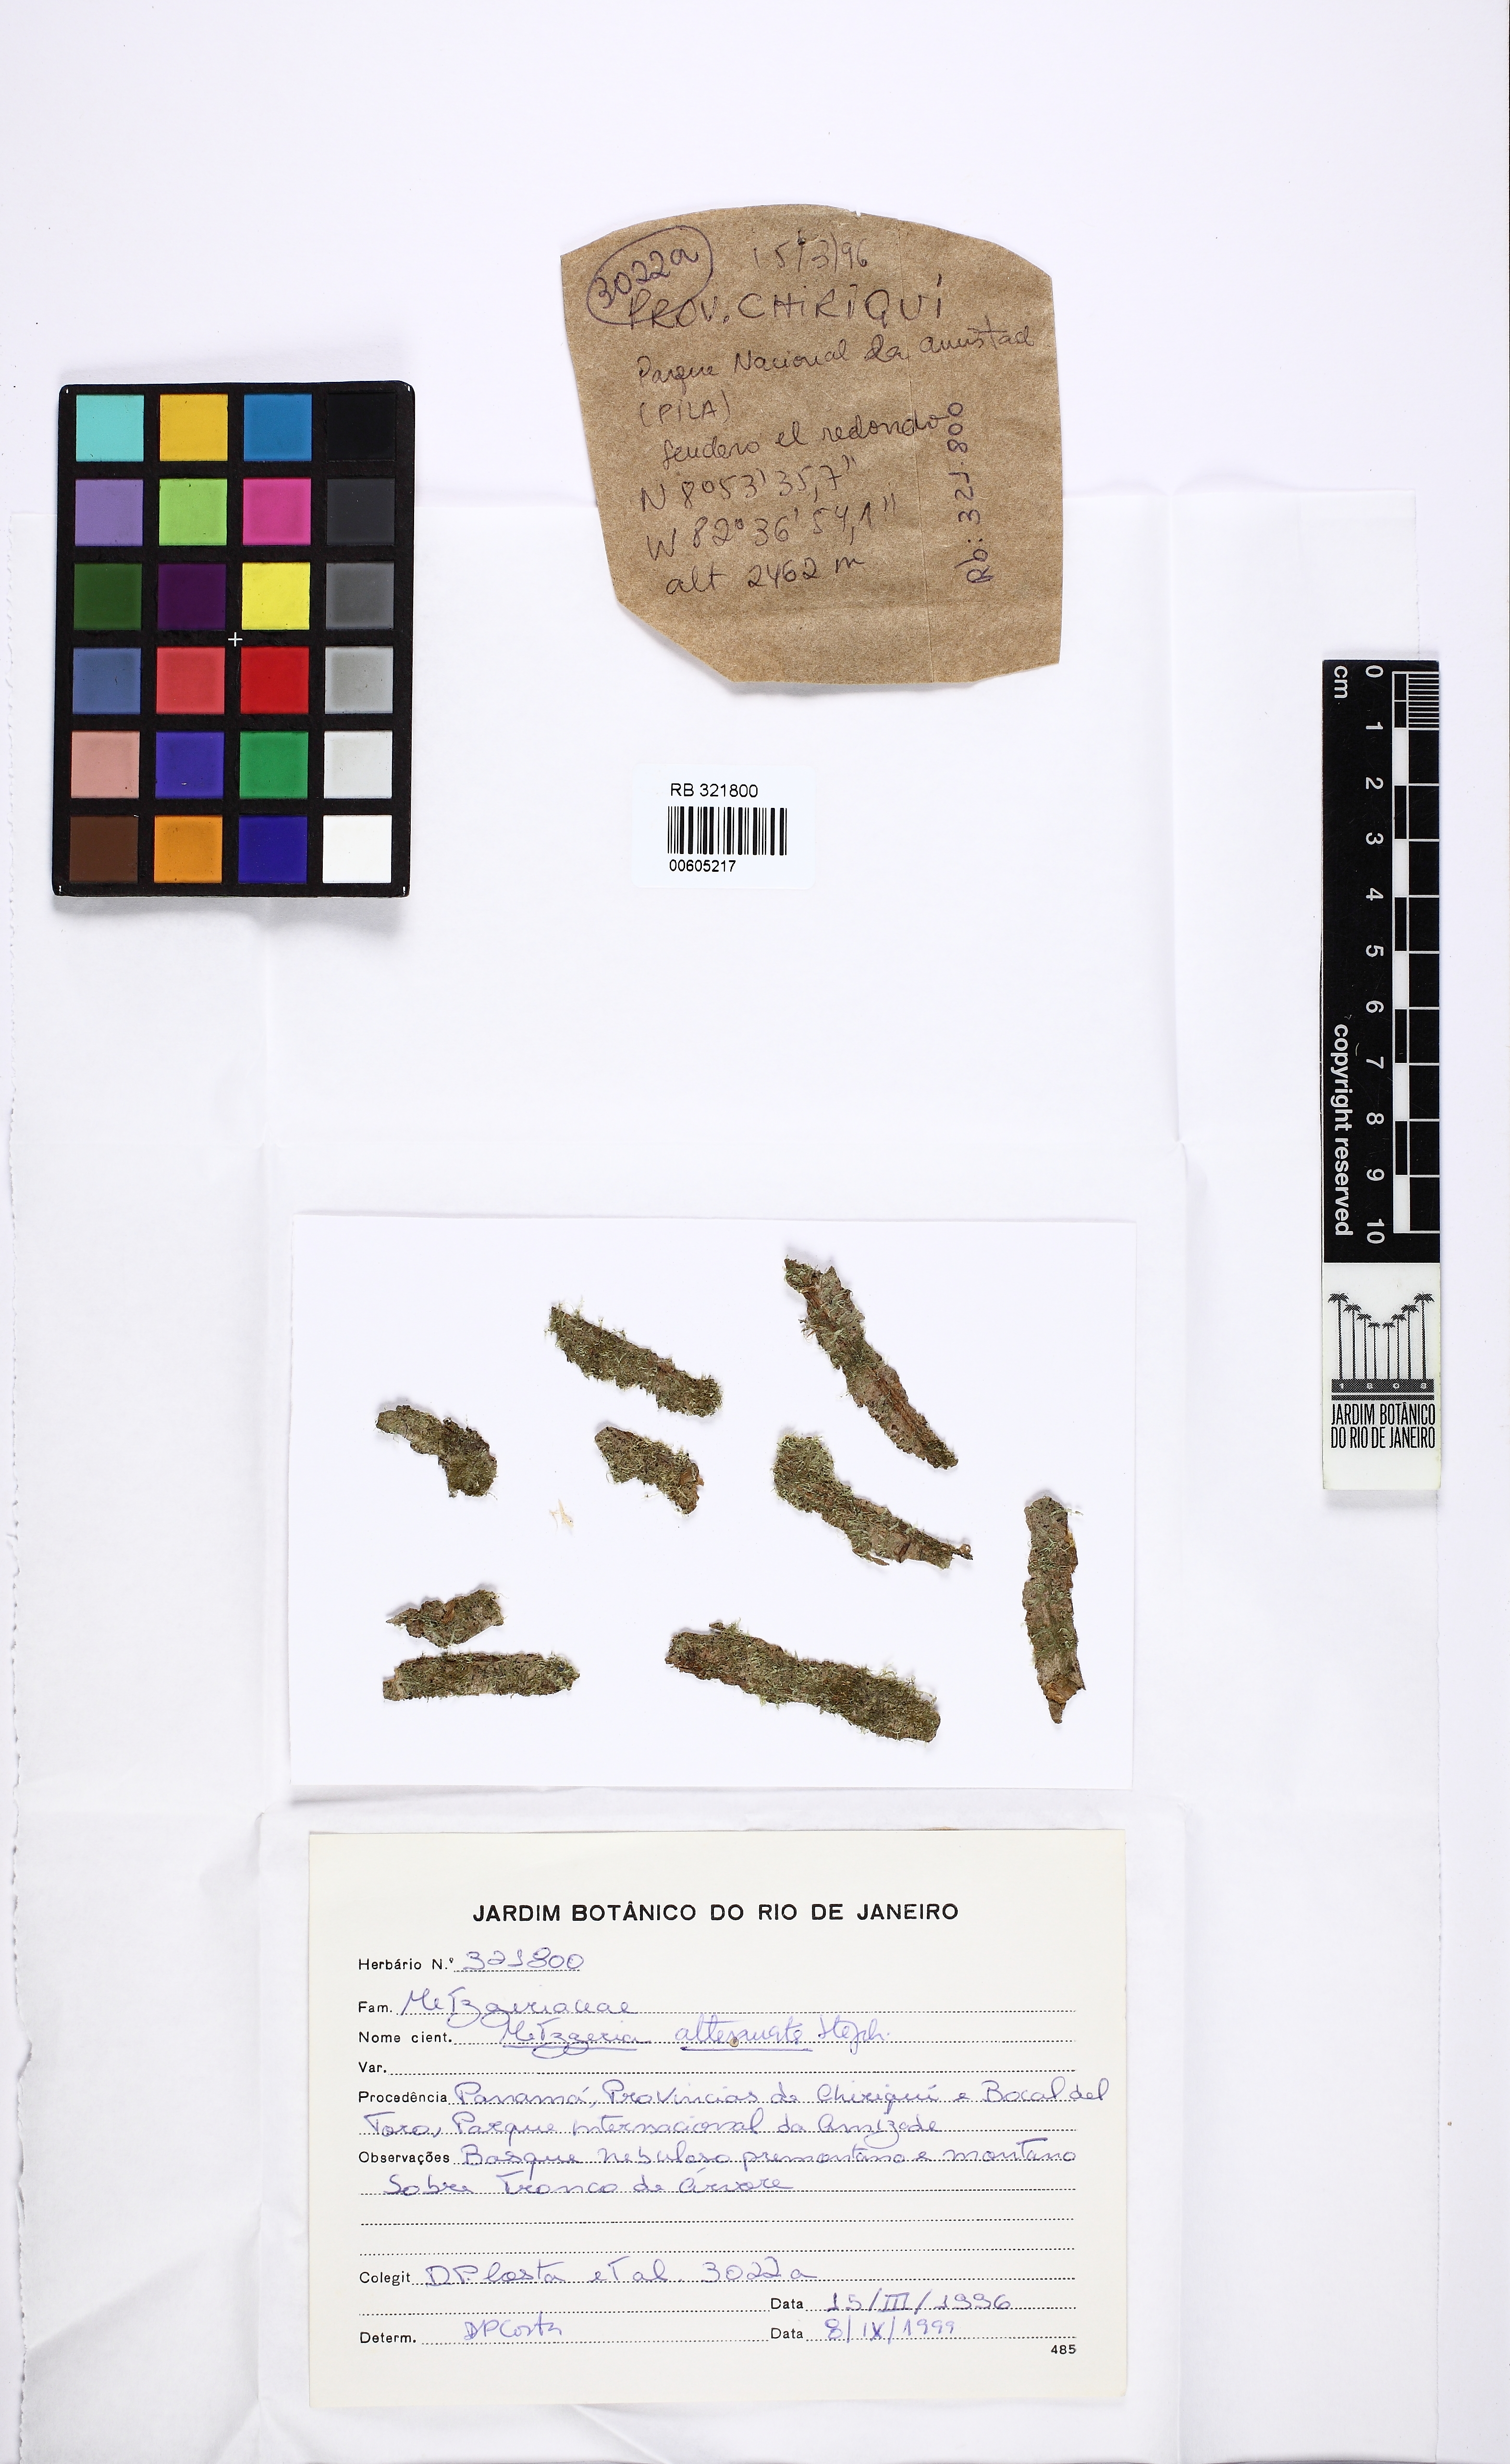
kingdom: Plantae
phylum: Marchantiophyta
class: Jungermanniopsida
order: Metzgeriales
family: Metzgeriaceae
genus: Metzgeria
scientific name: Metzgeria consanguinea
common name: Whiskered veilwort
